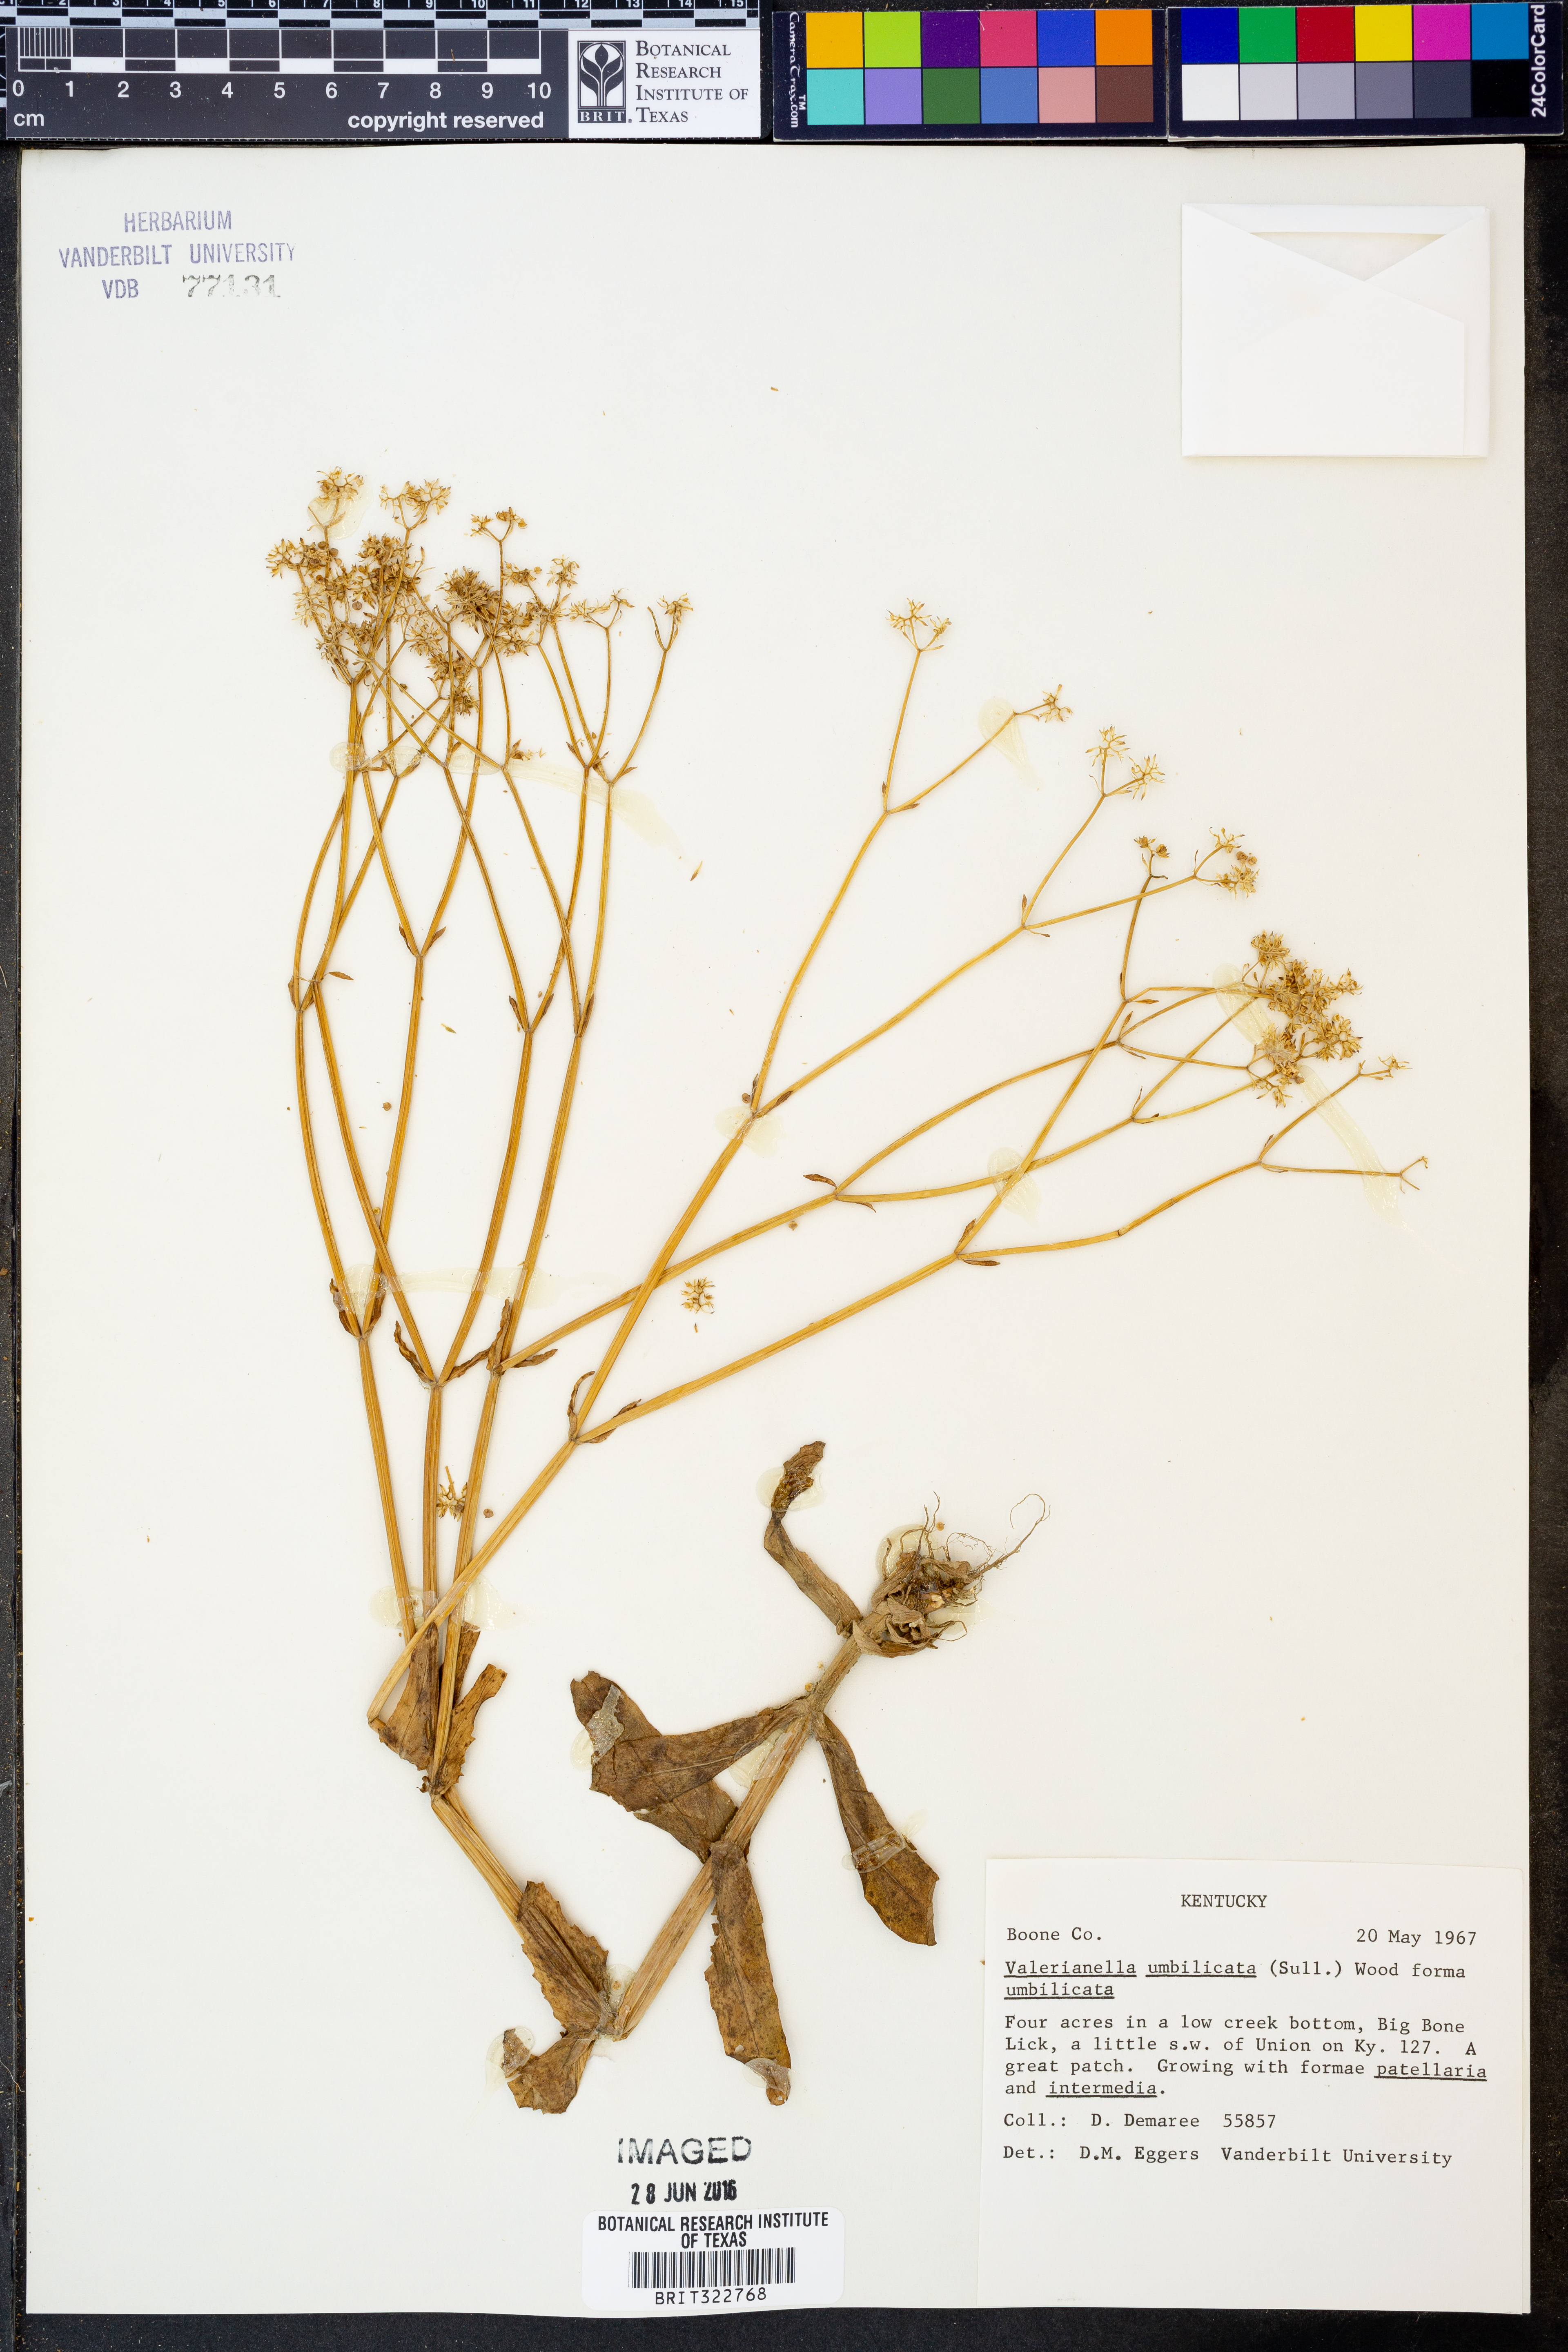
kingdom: Plantae
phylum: Tracheophyta
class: Magnoliopsida
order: Dipsacales
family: Caprifoliaceae
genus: Valerianella
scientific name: Valerianella umbilicata
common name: Wood's cornsalad
